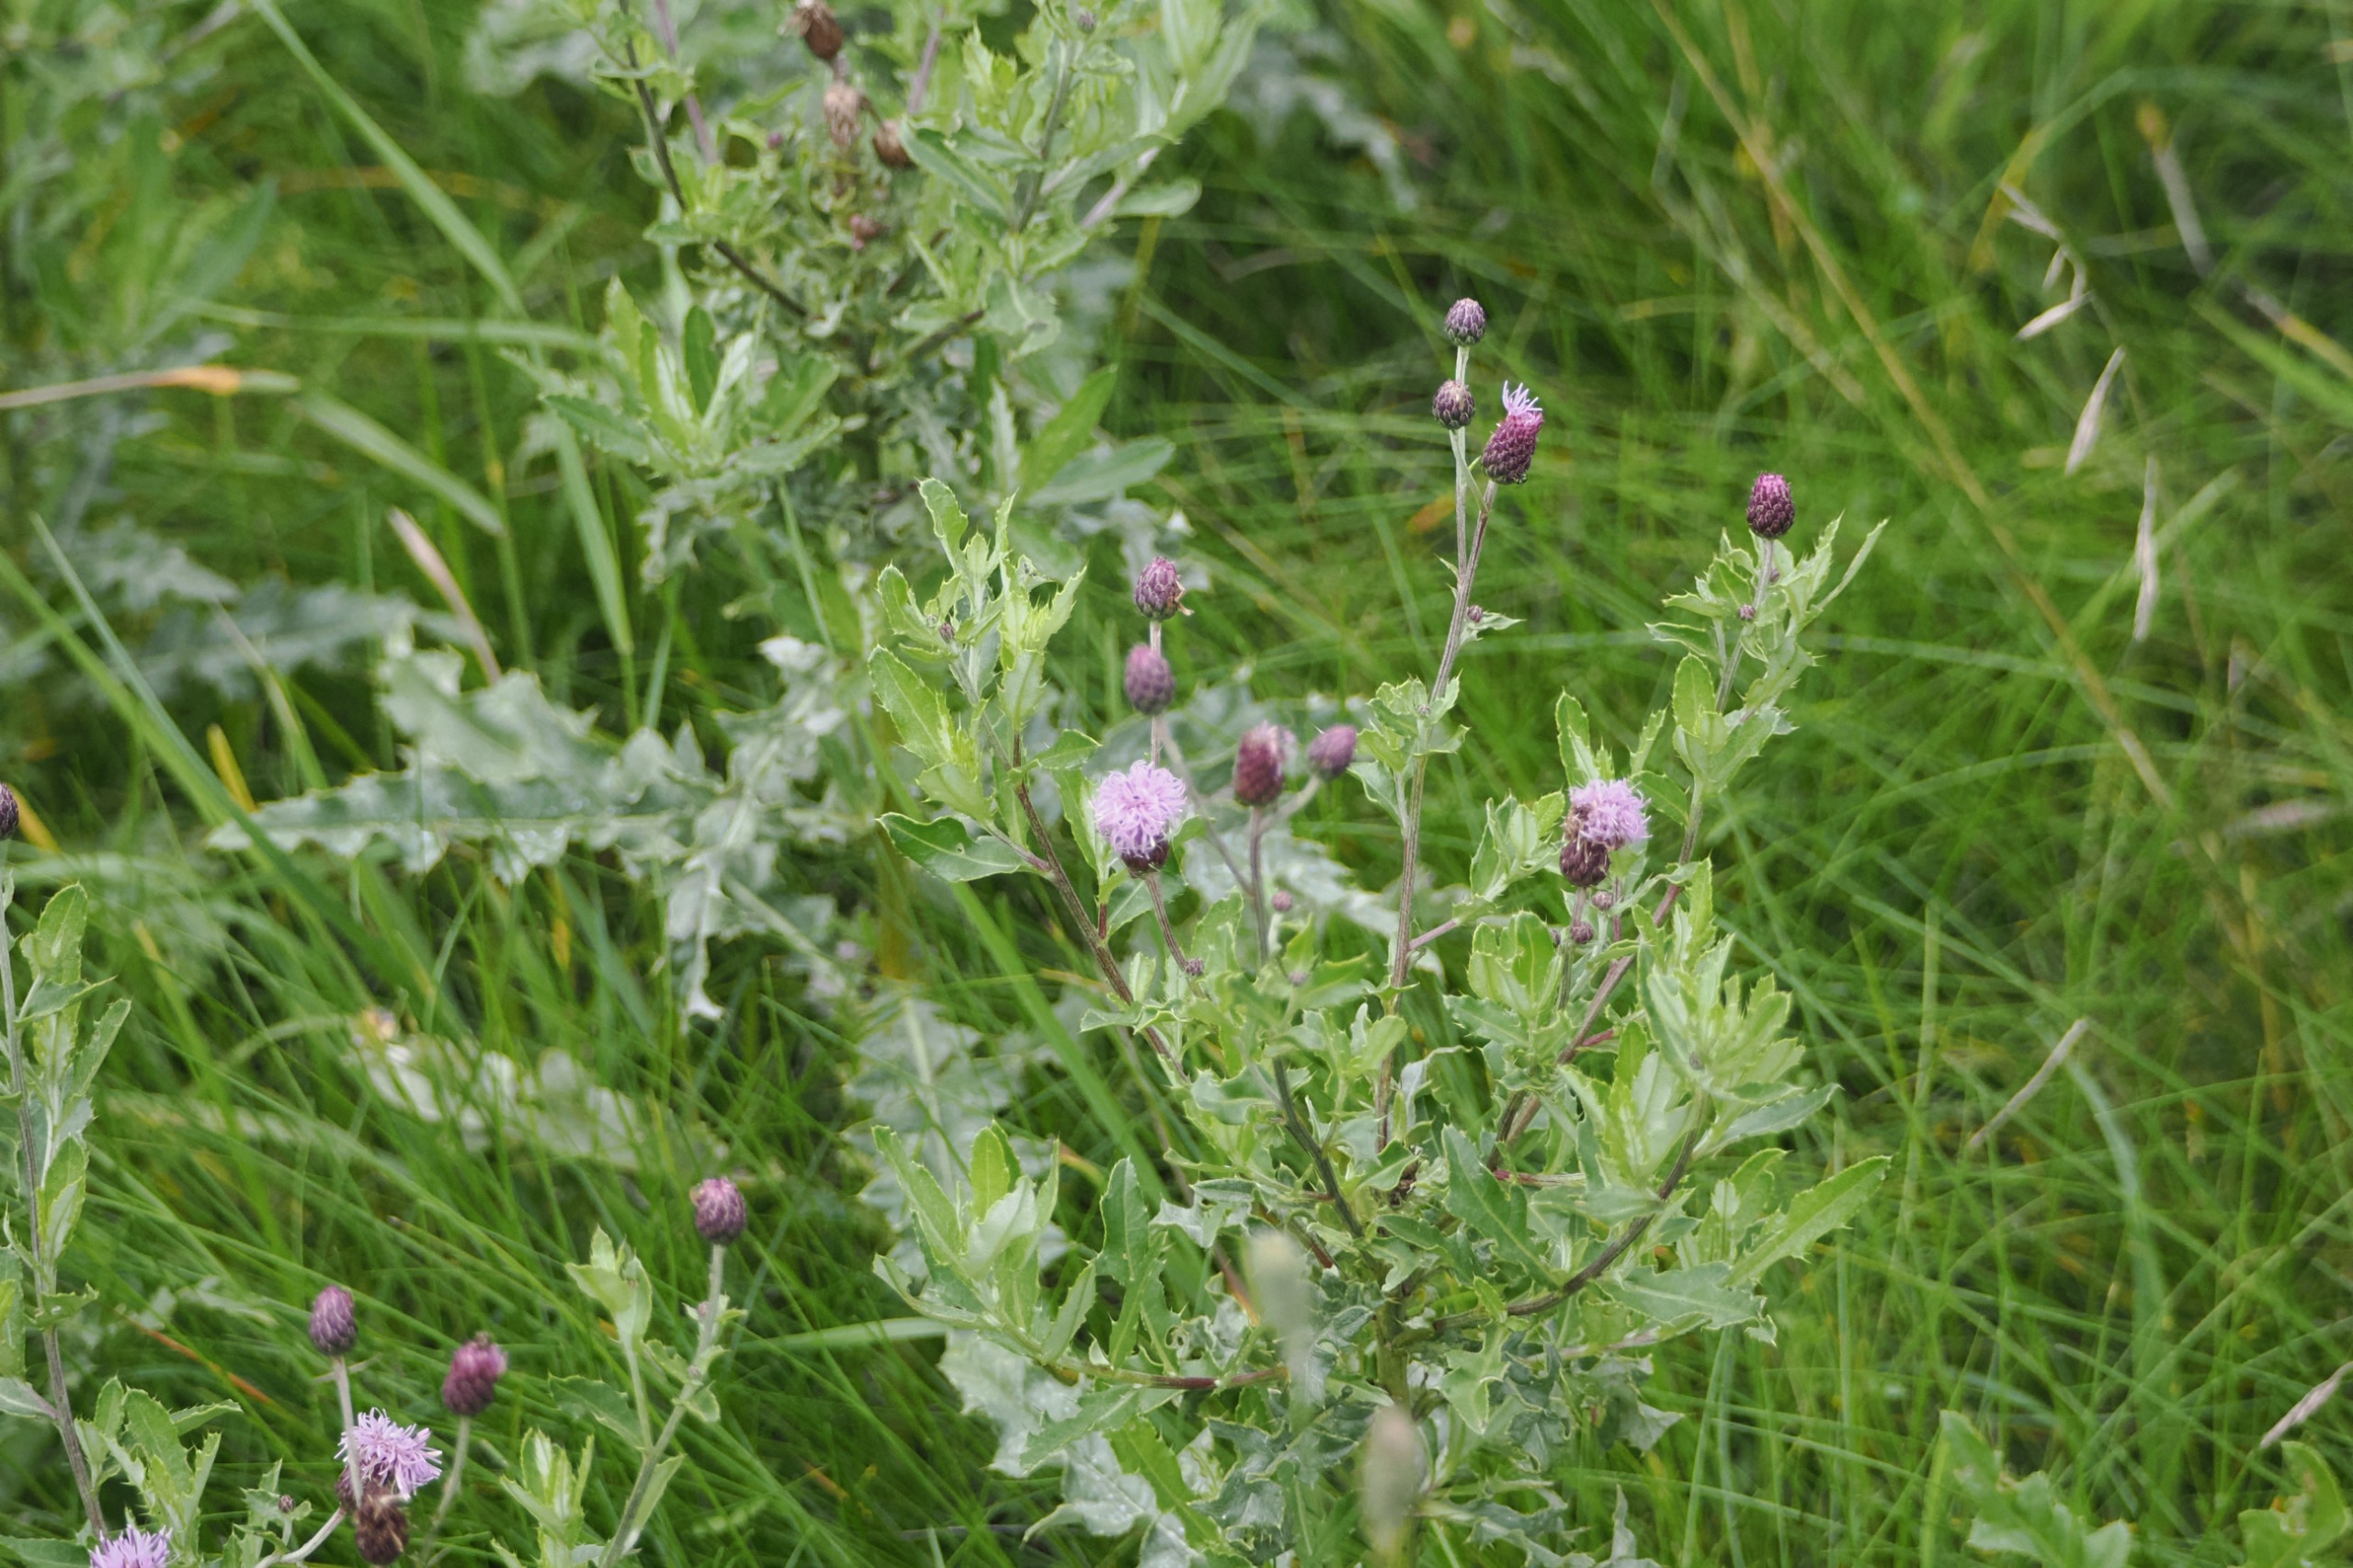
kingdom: Plantae
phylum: Tracheophyta
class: Magnoliopsida
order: Asterales
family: Asteraceae
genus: Cirsium
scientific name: Cirsium arvense
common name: Ager-tidsel
